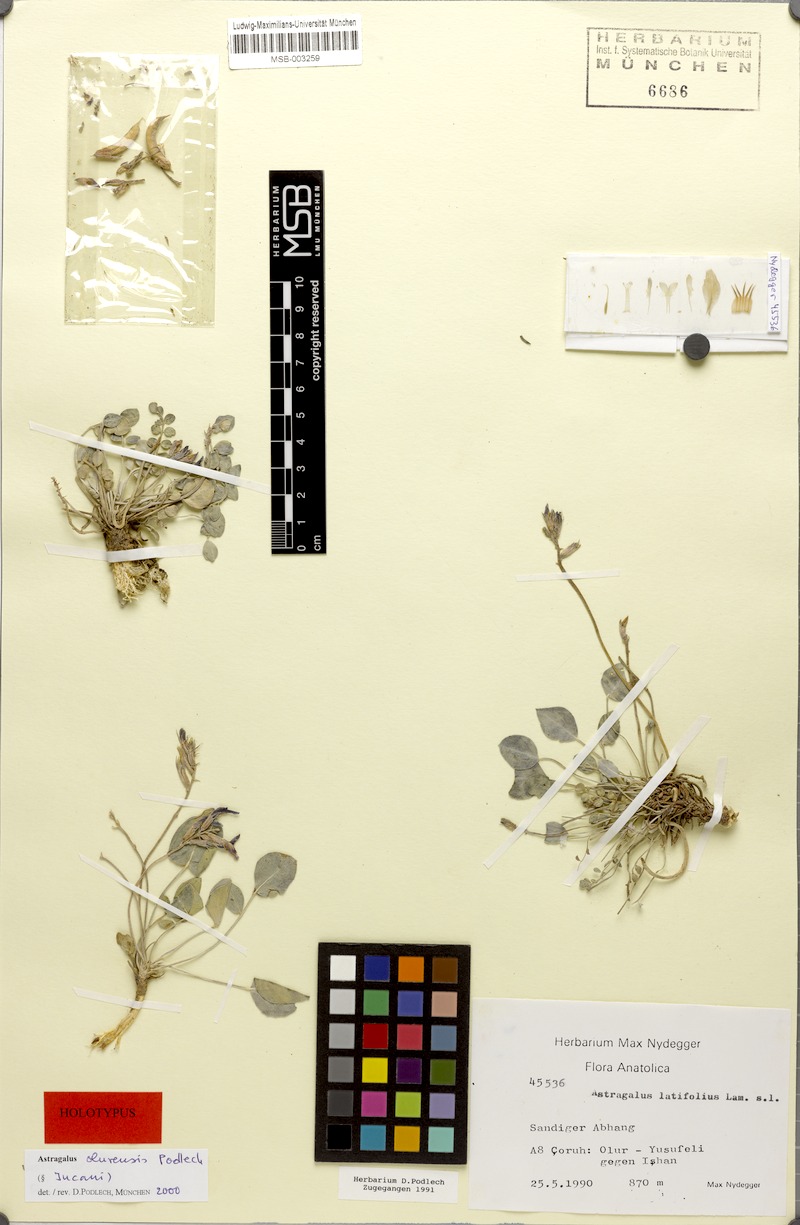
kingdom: Plantae
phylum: Tracheophyta
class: Magnoliopsida
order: Fabales
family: Fabaceae
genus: Astragalus
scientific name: Astragalus olurensis
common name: Olurian milk vetch
